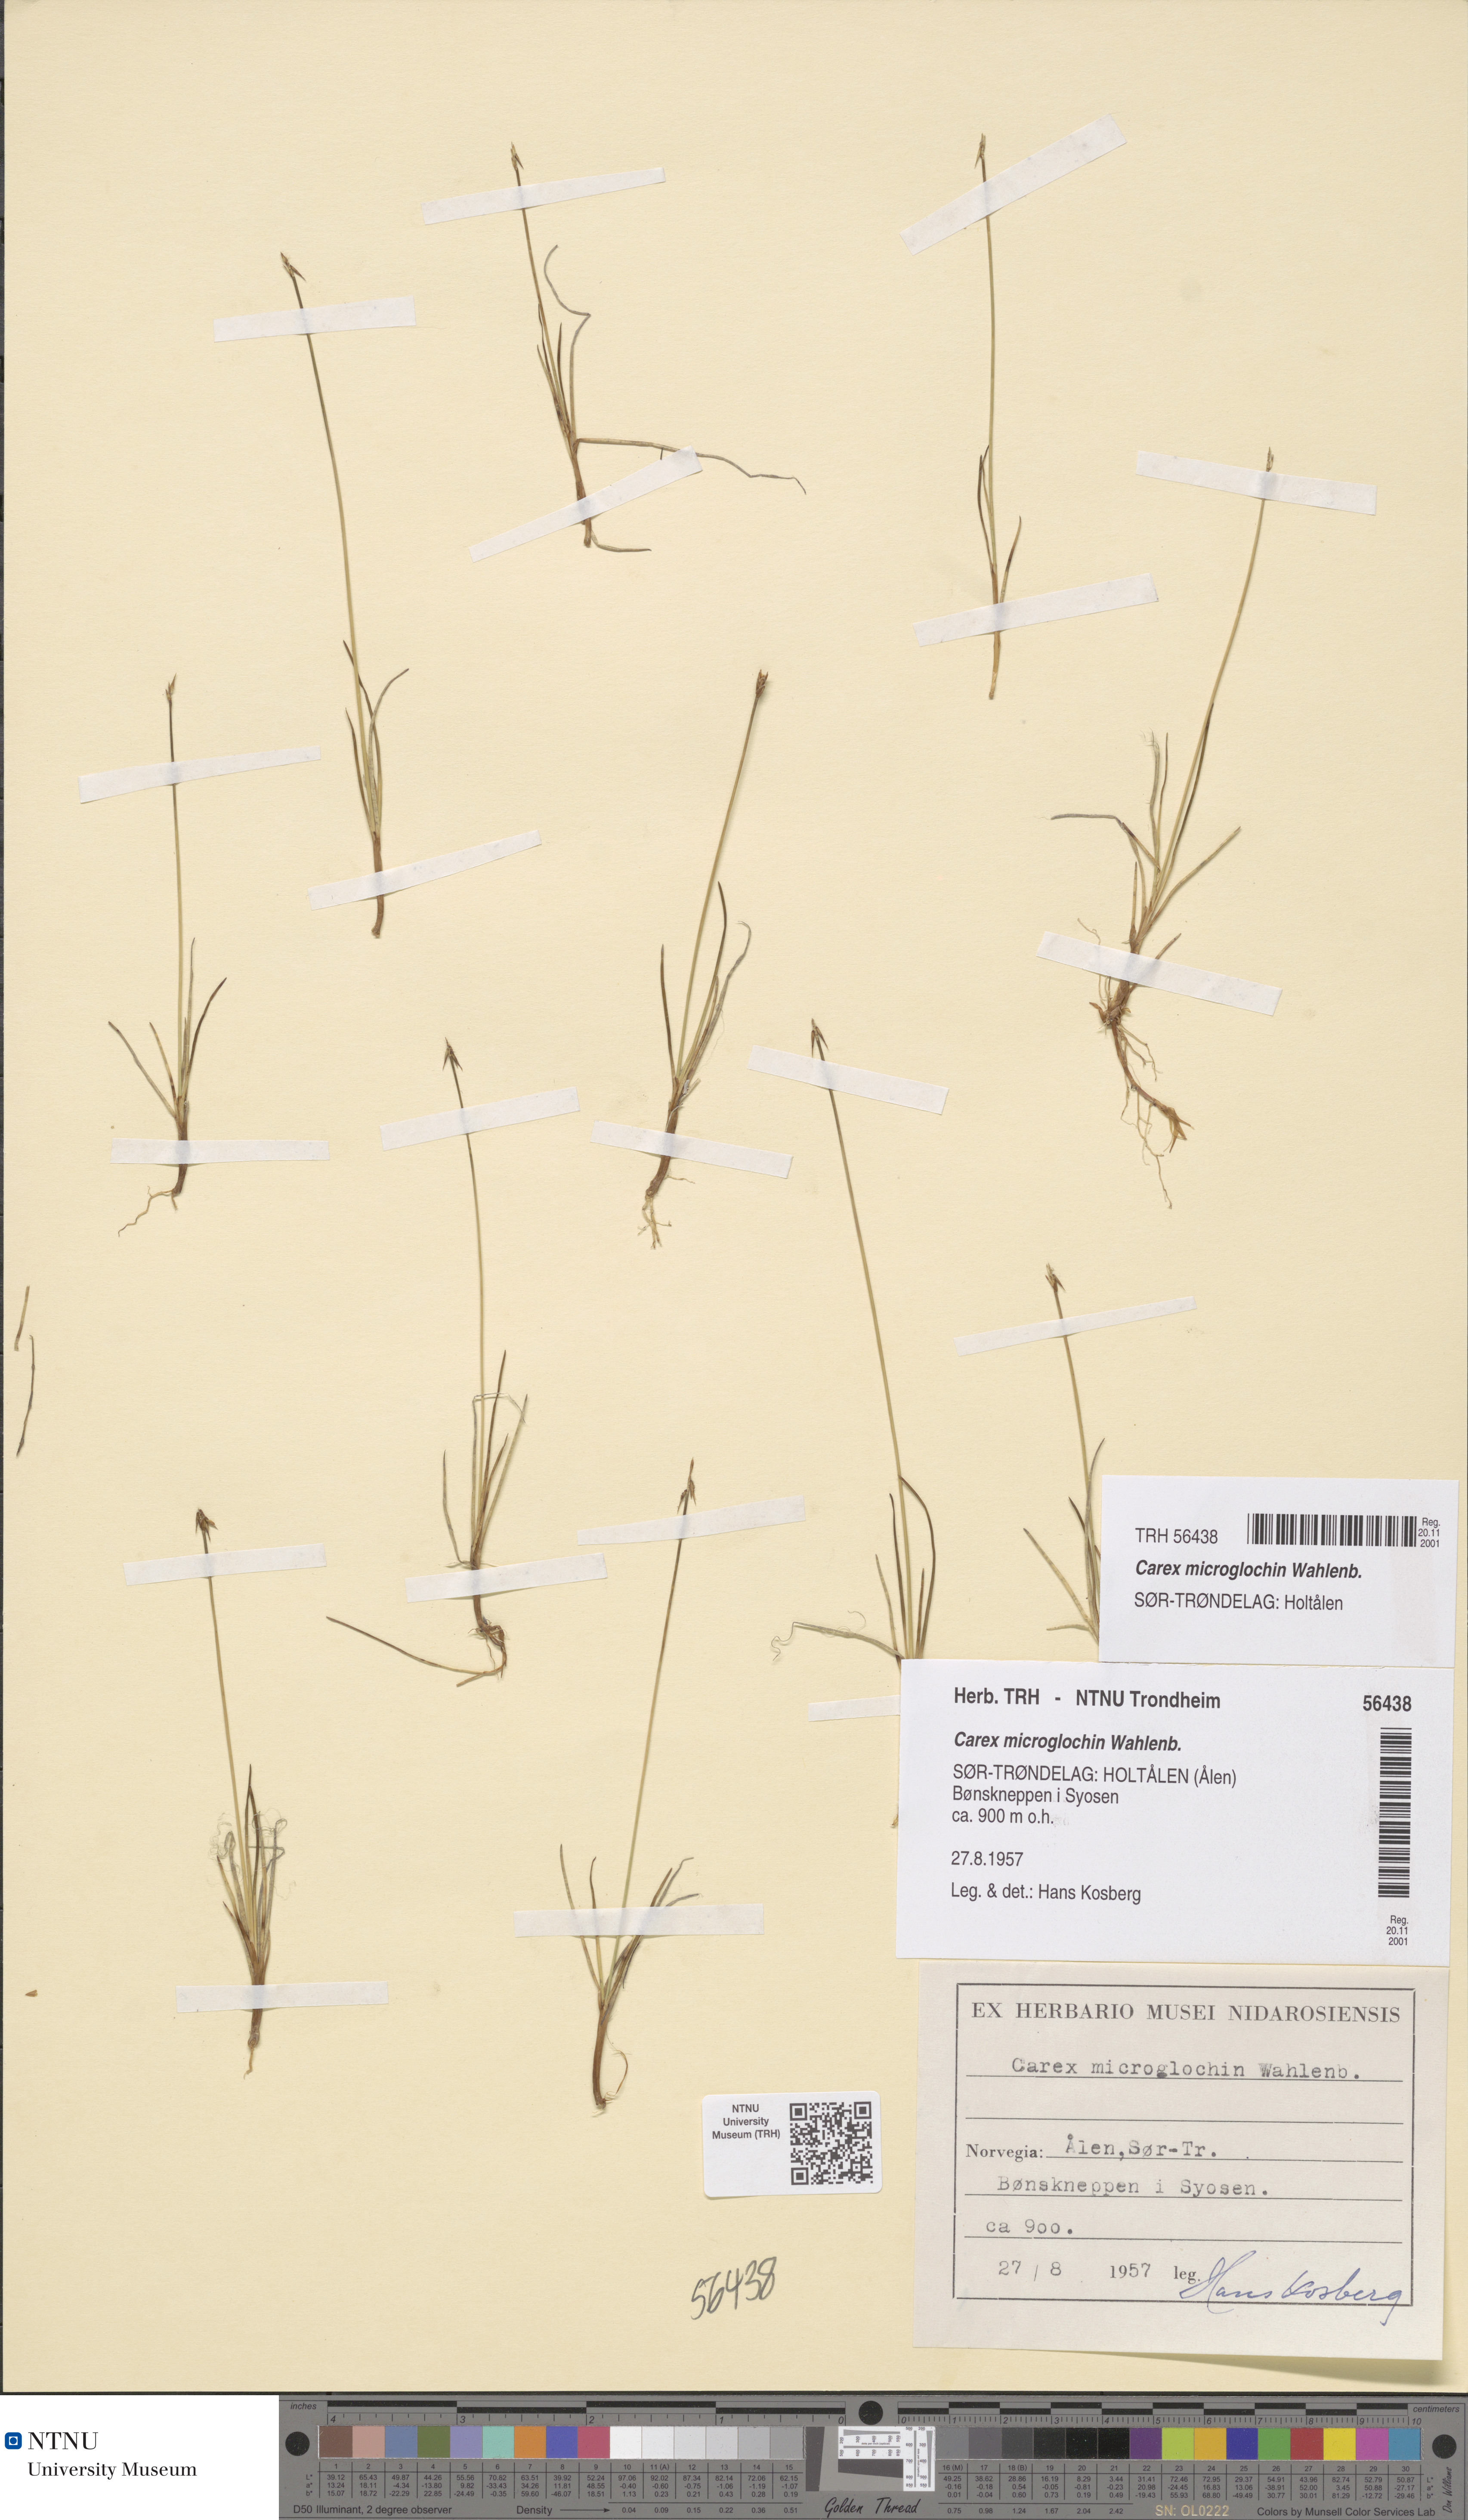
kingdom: Plantae
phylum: Tracheophyta
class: Liliopsida
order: Poales
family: Cyperaceae
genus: Carex
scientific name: Carex microglochin
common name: Bristle sedge
